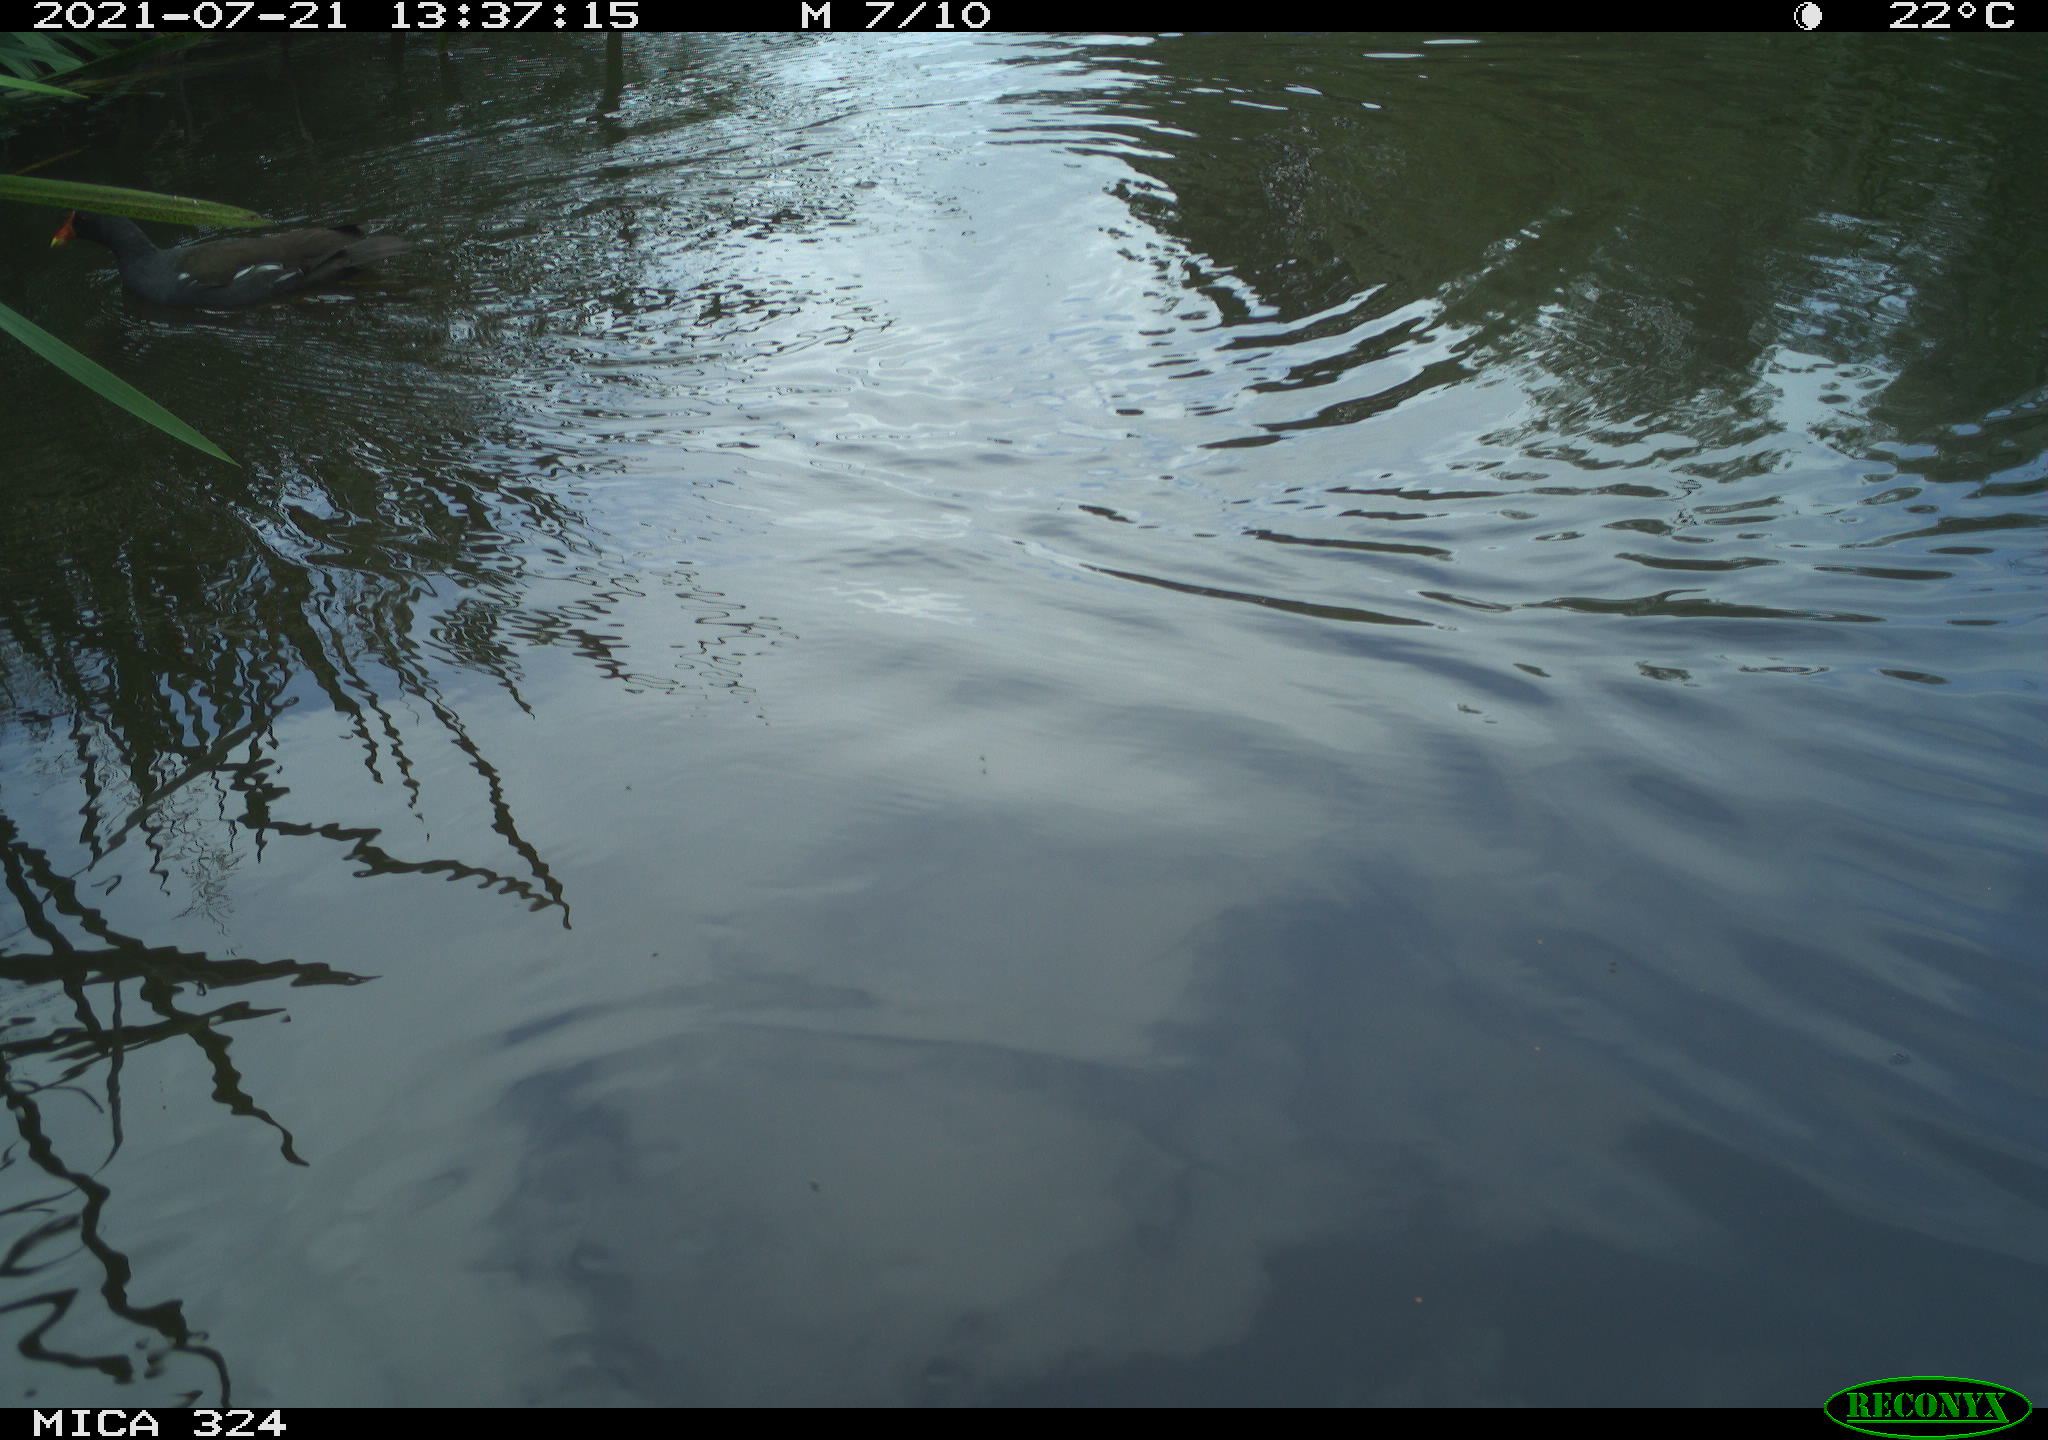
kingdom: Animalia
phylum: Chordata
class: Aves
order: Gruiformes
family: Rallidae
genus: Gallinula
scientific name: Gallinula chloropus
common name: Common moorhen
